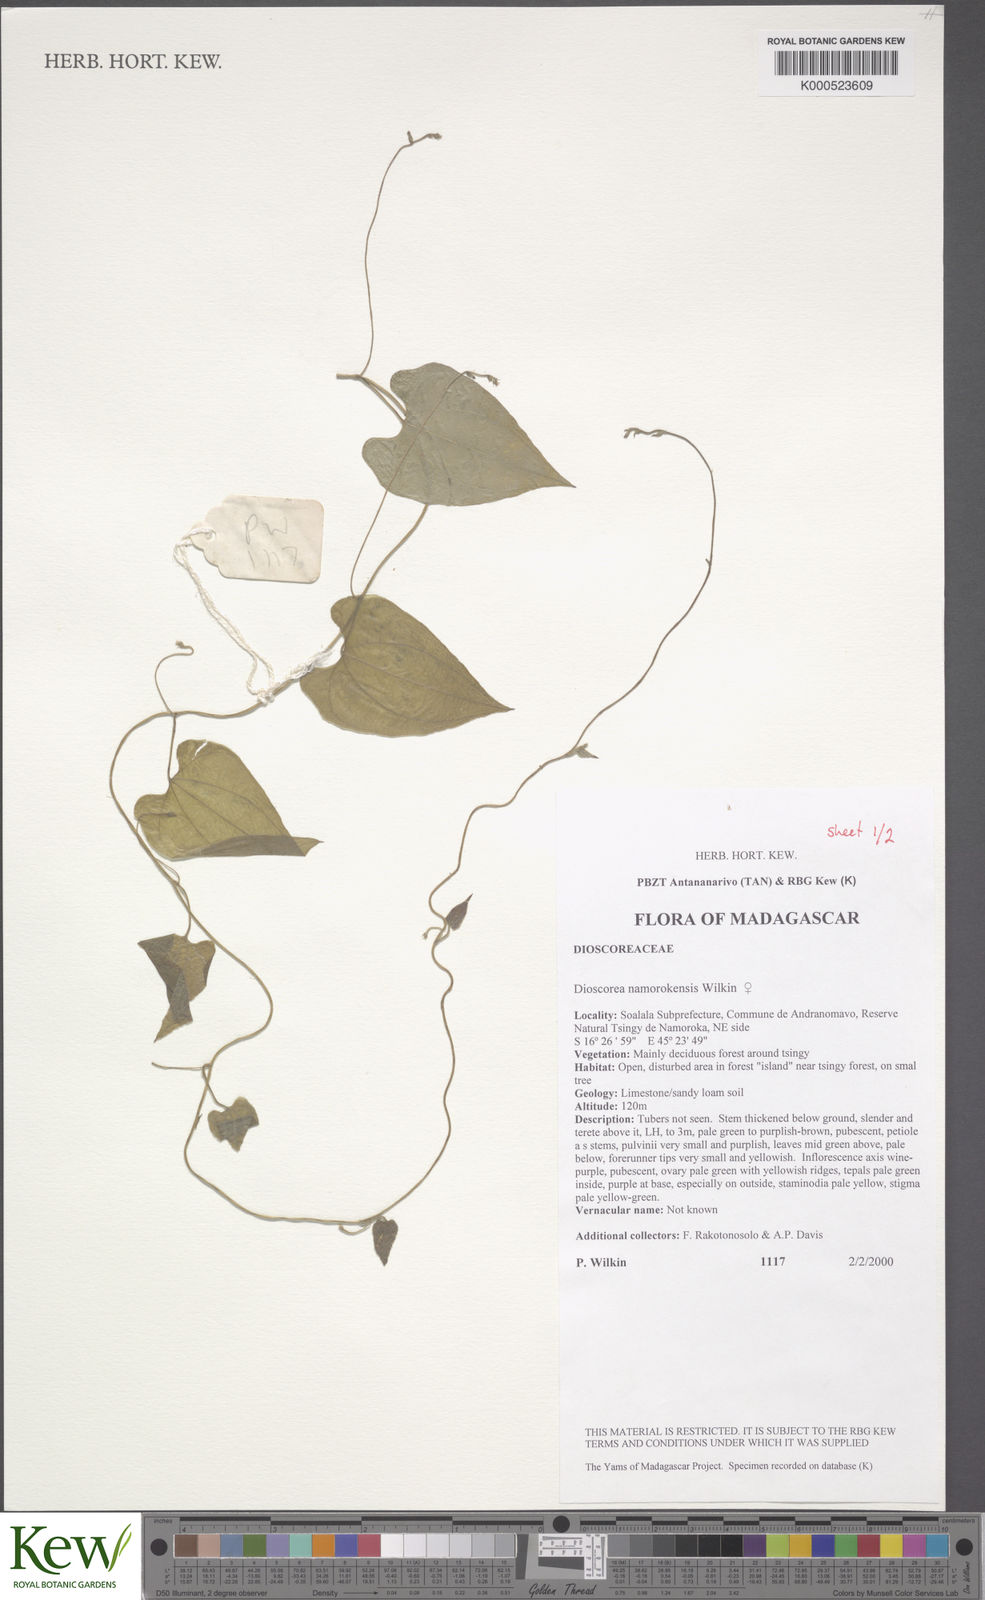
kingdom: Plantae
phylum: Tracheophyta
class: Liliopsida
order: Dioscoreales
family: Dioscoreaceae
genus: Dioscorea
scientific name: Dioscorea namorokensis
